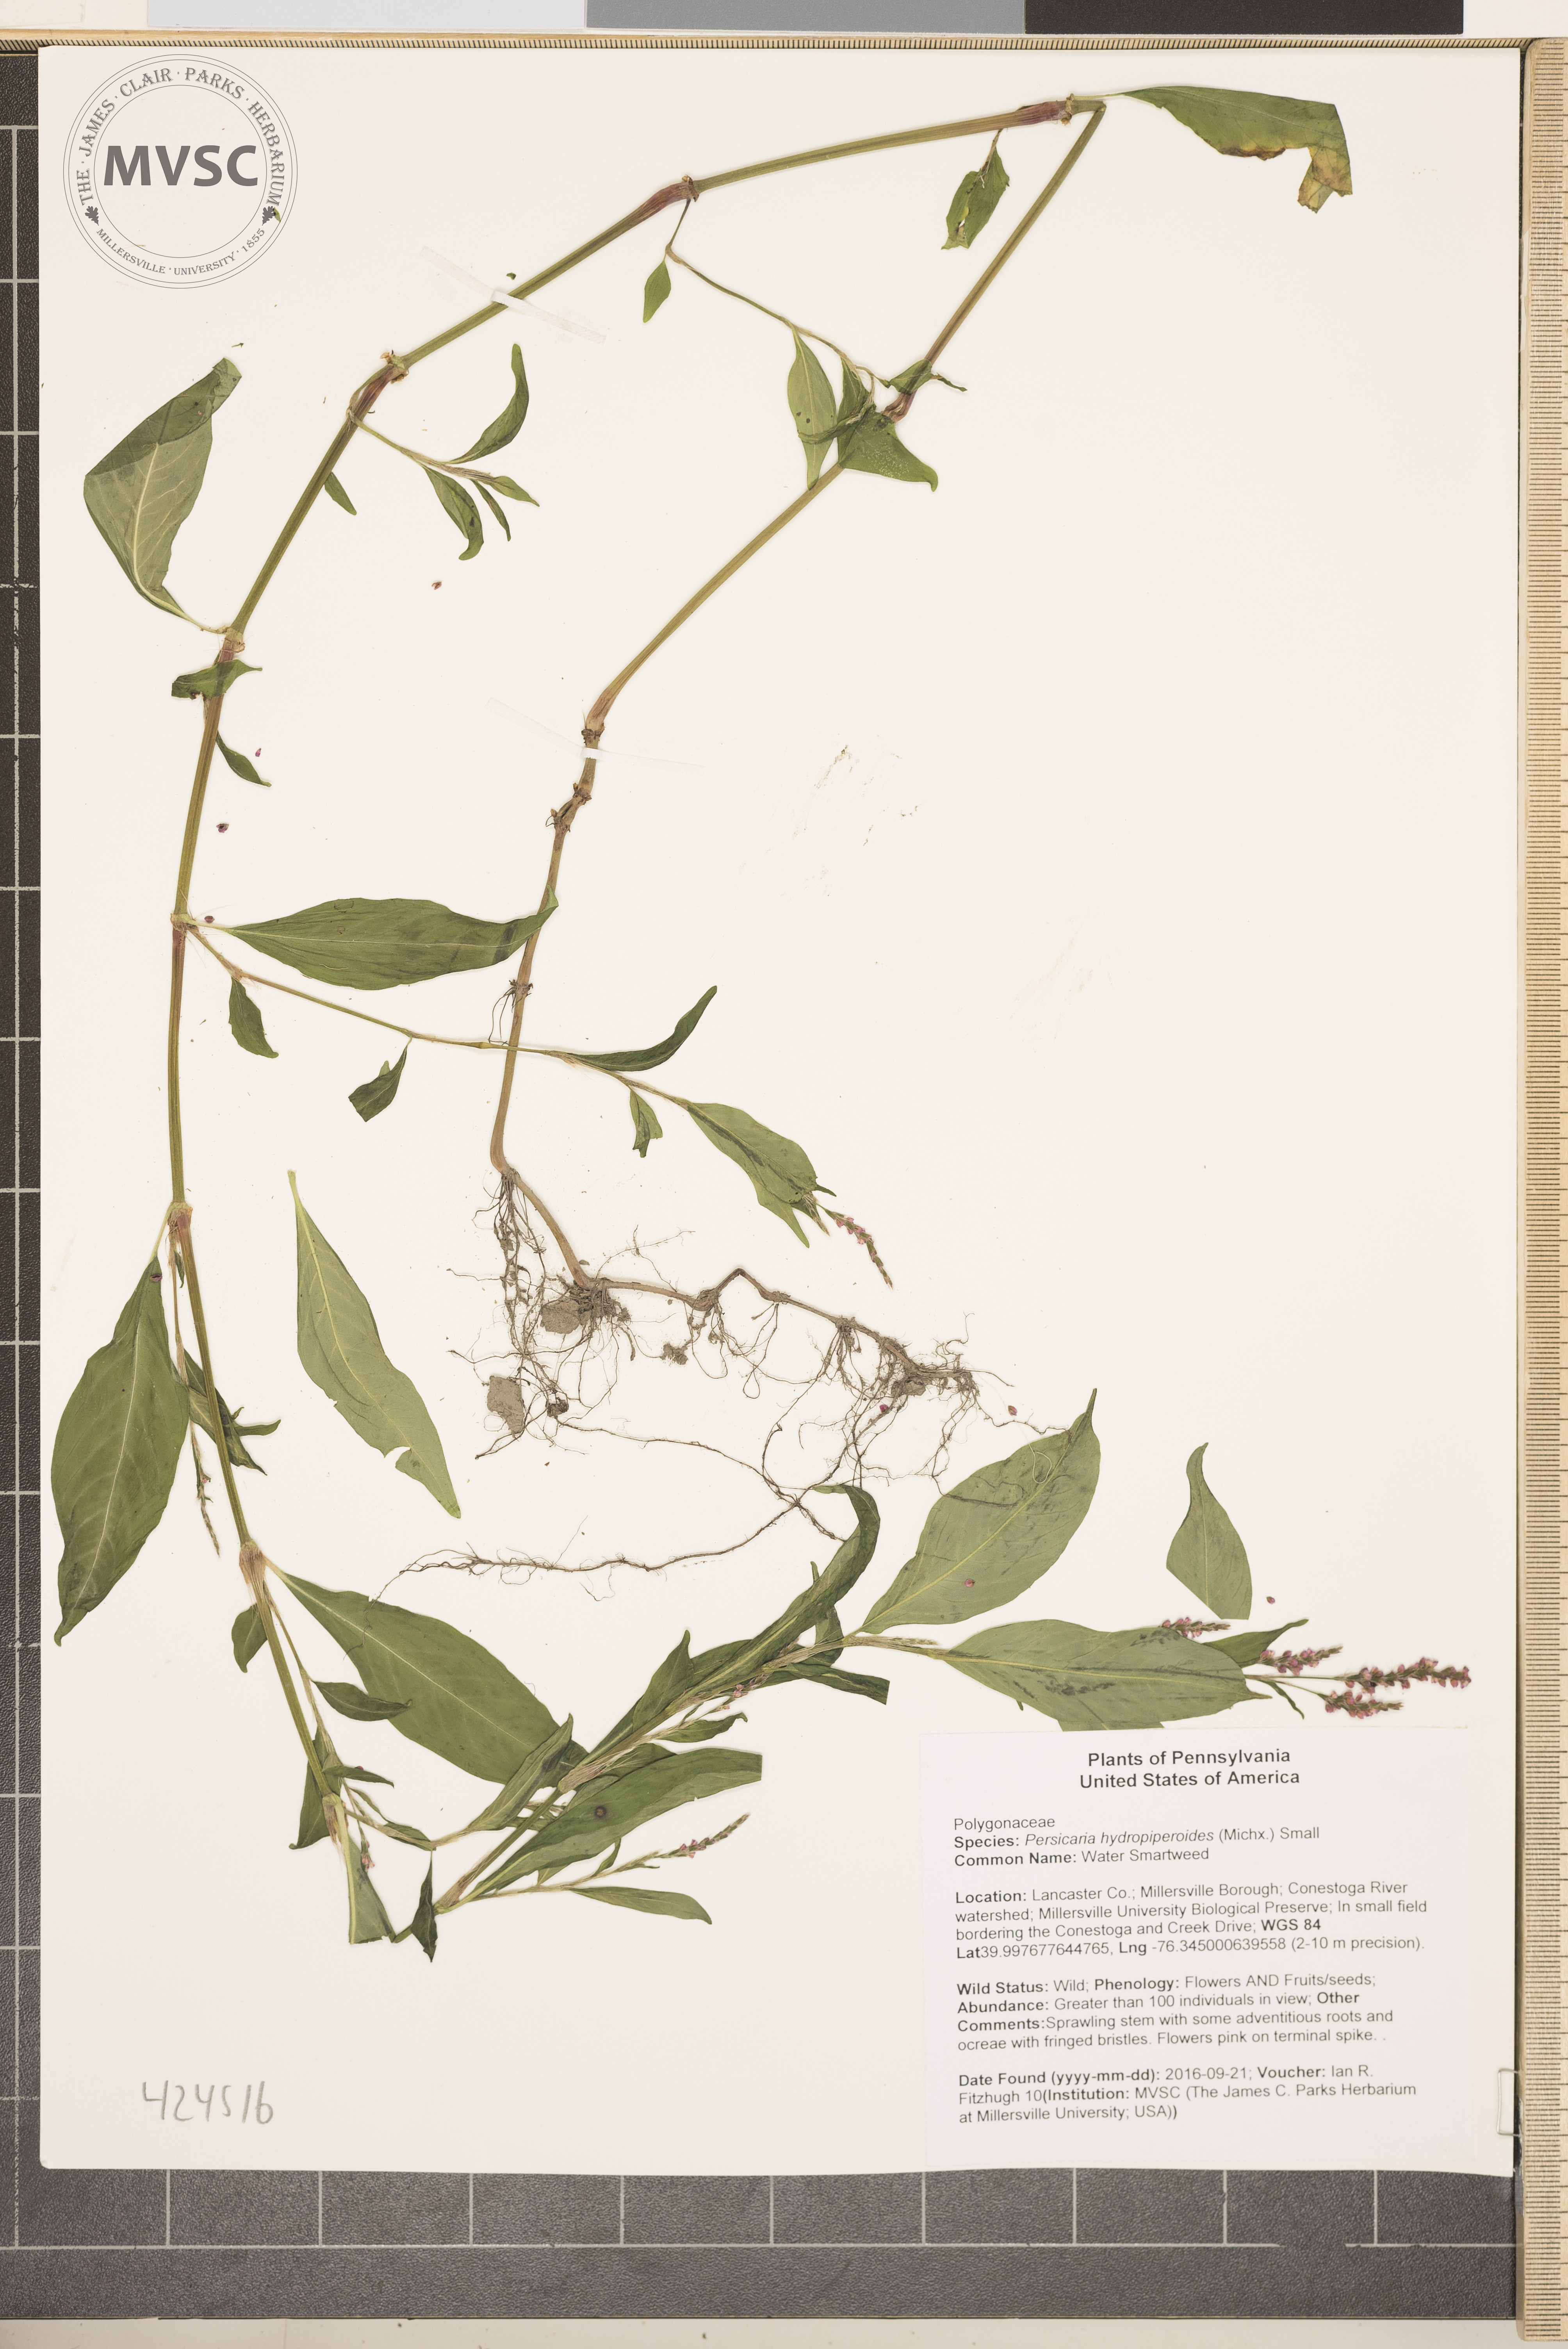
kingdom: Plantae
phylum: Tracheophyta
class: Magnoliopsida
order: Caryophyllales
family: Polygonaceae
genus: Persicaria
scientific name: Persicaria hydropiperoides
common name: Water Smartweed
